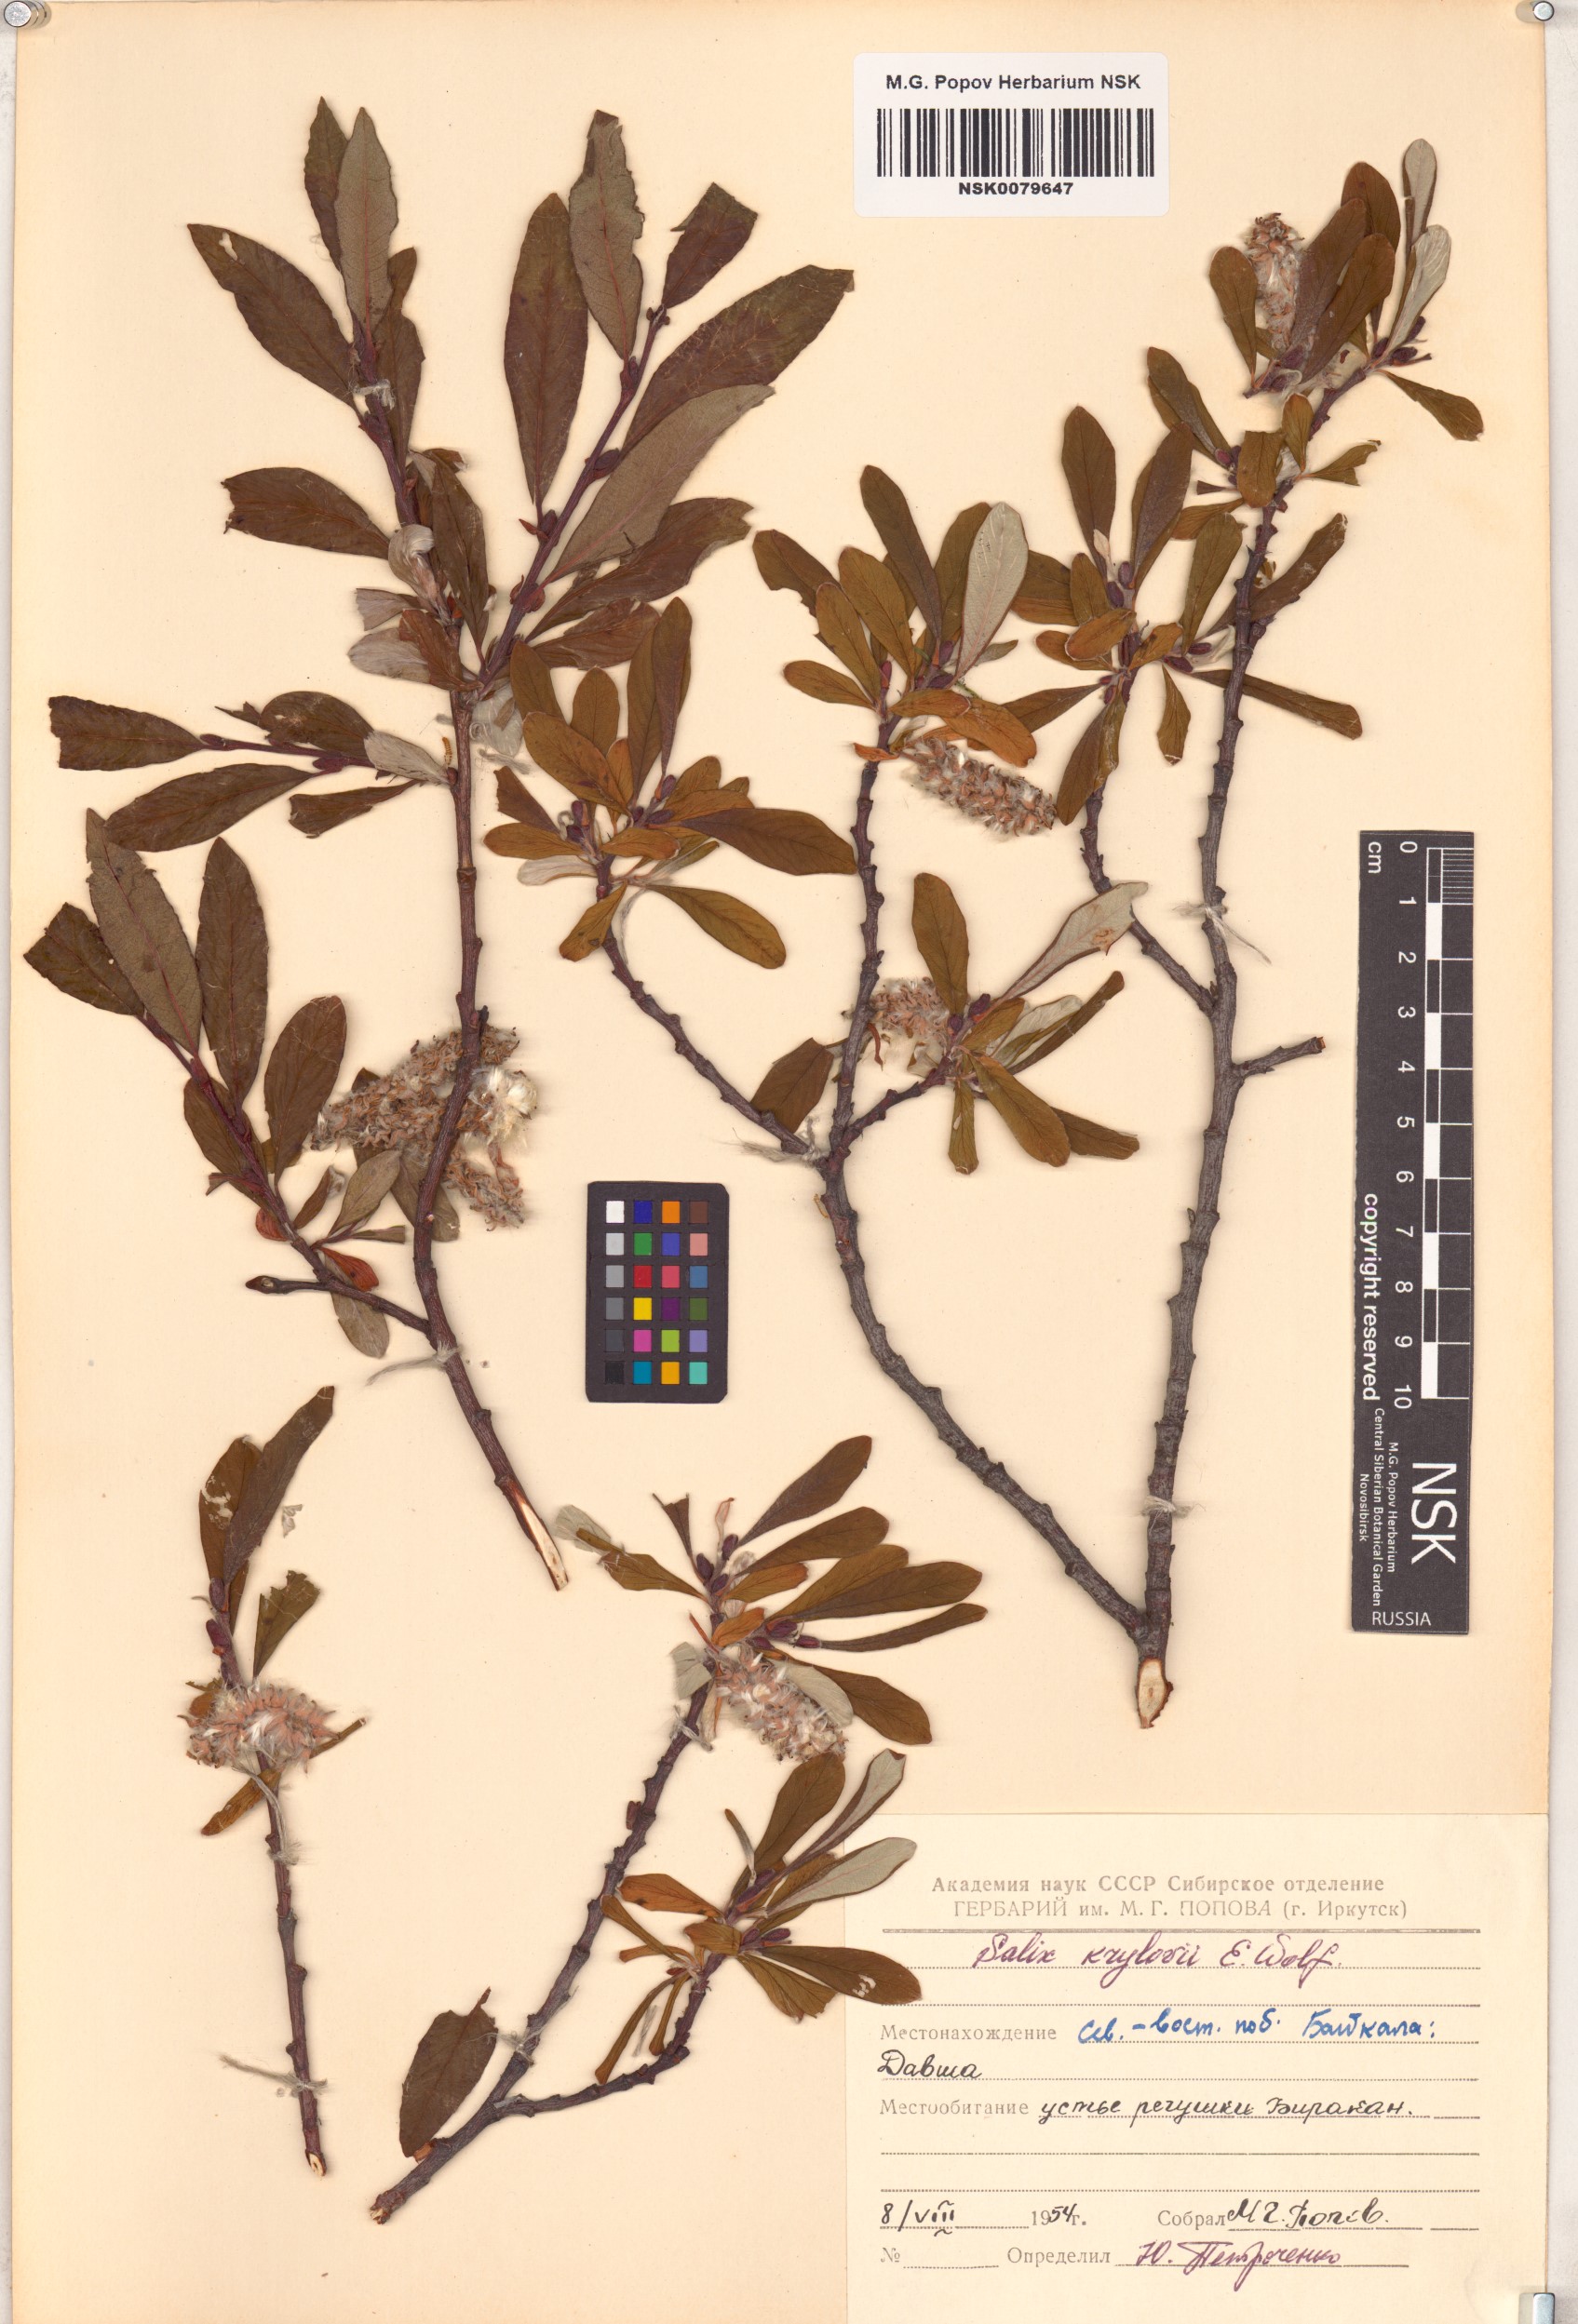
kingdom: Plantae
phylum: Tracheophyta
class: Magnoliopsida
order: Malpighiales
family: Salicaceae
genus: Salix
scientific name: Salix krylovii
